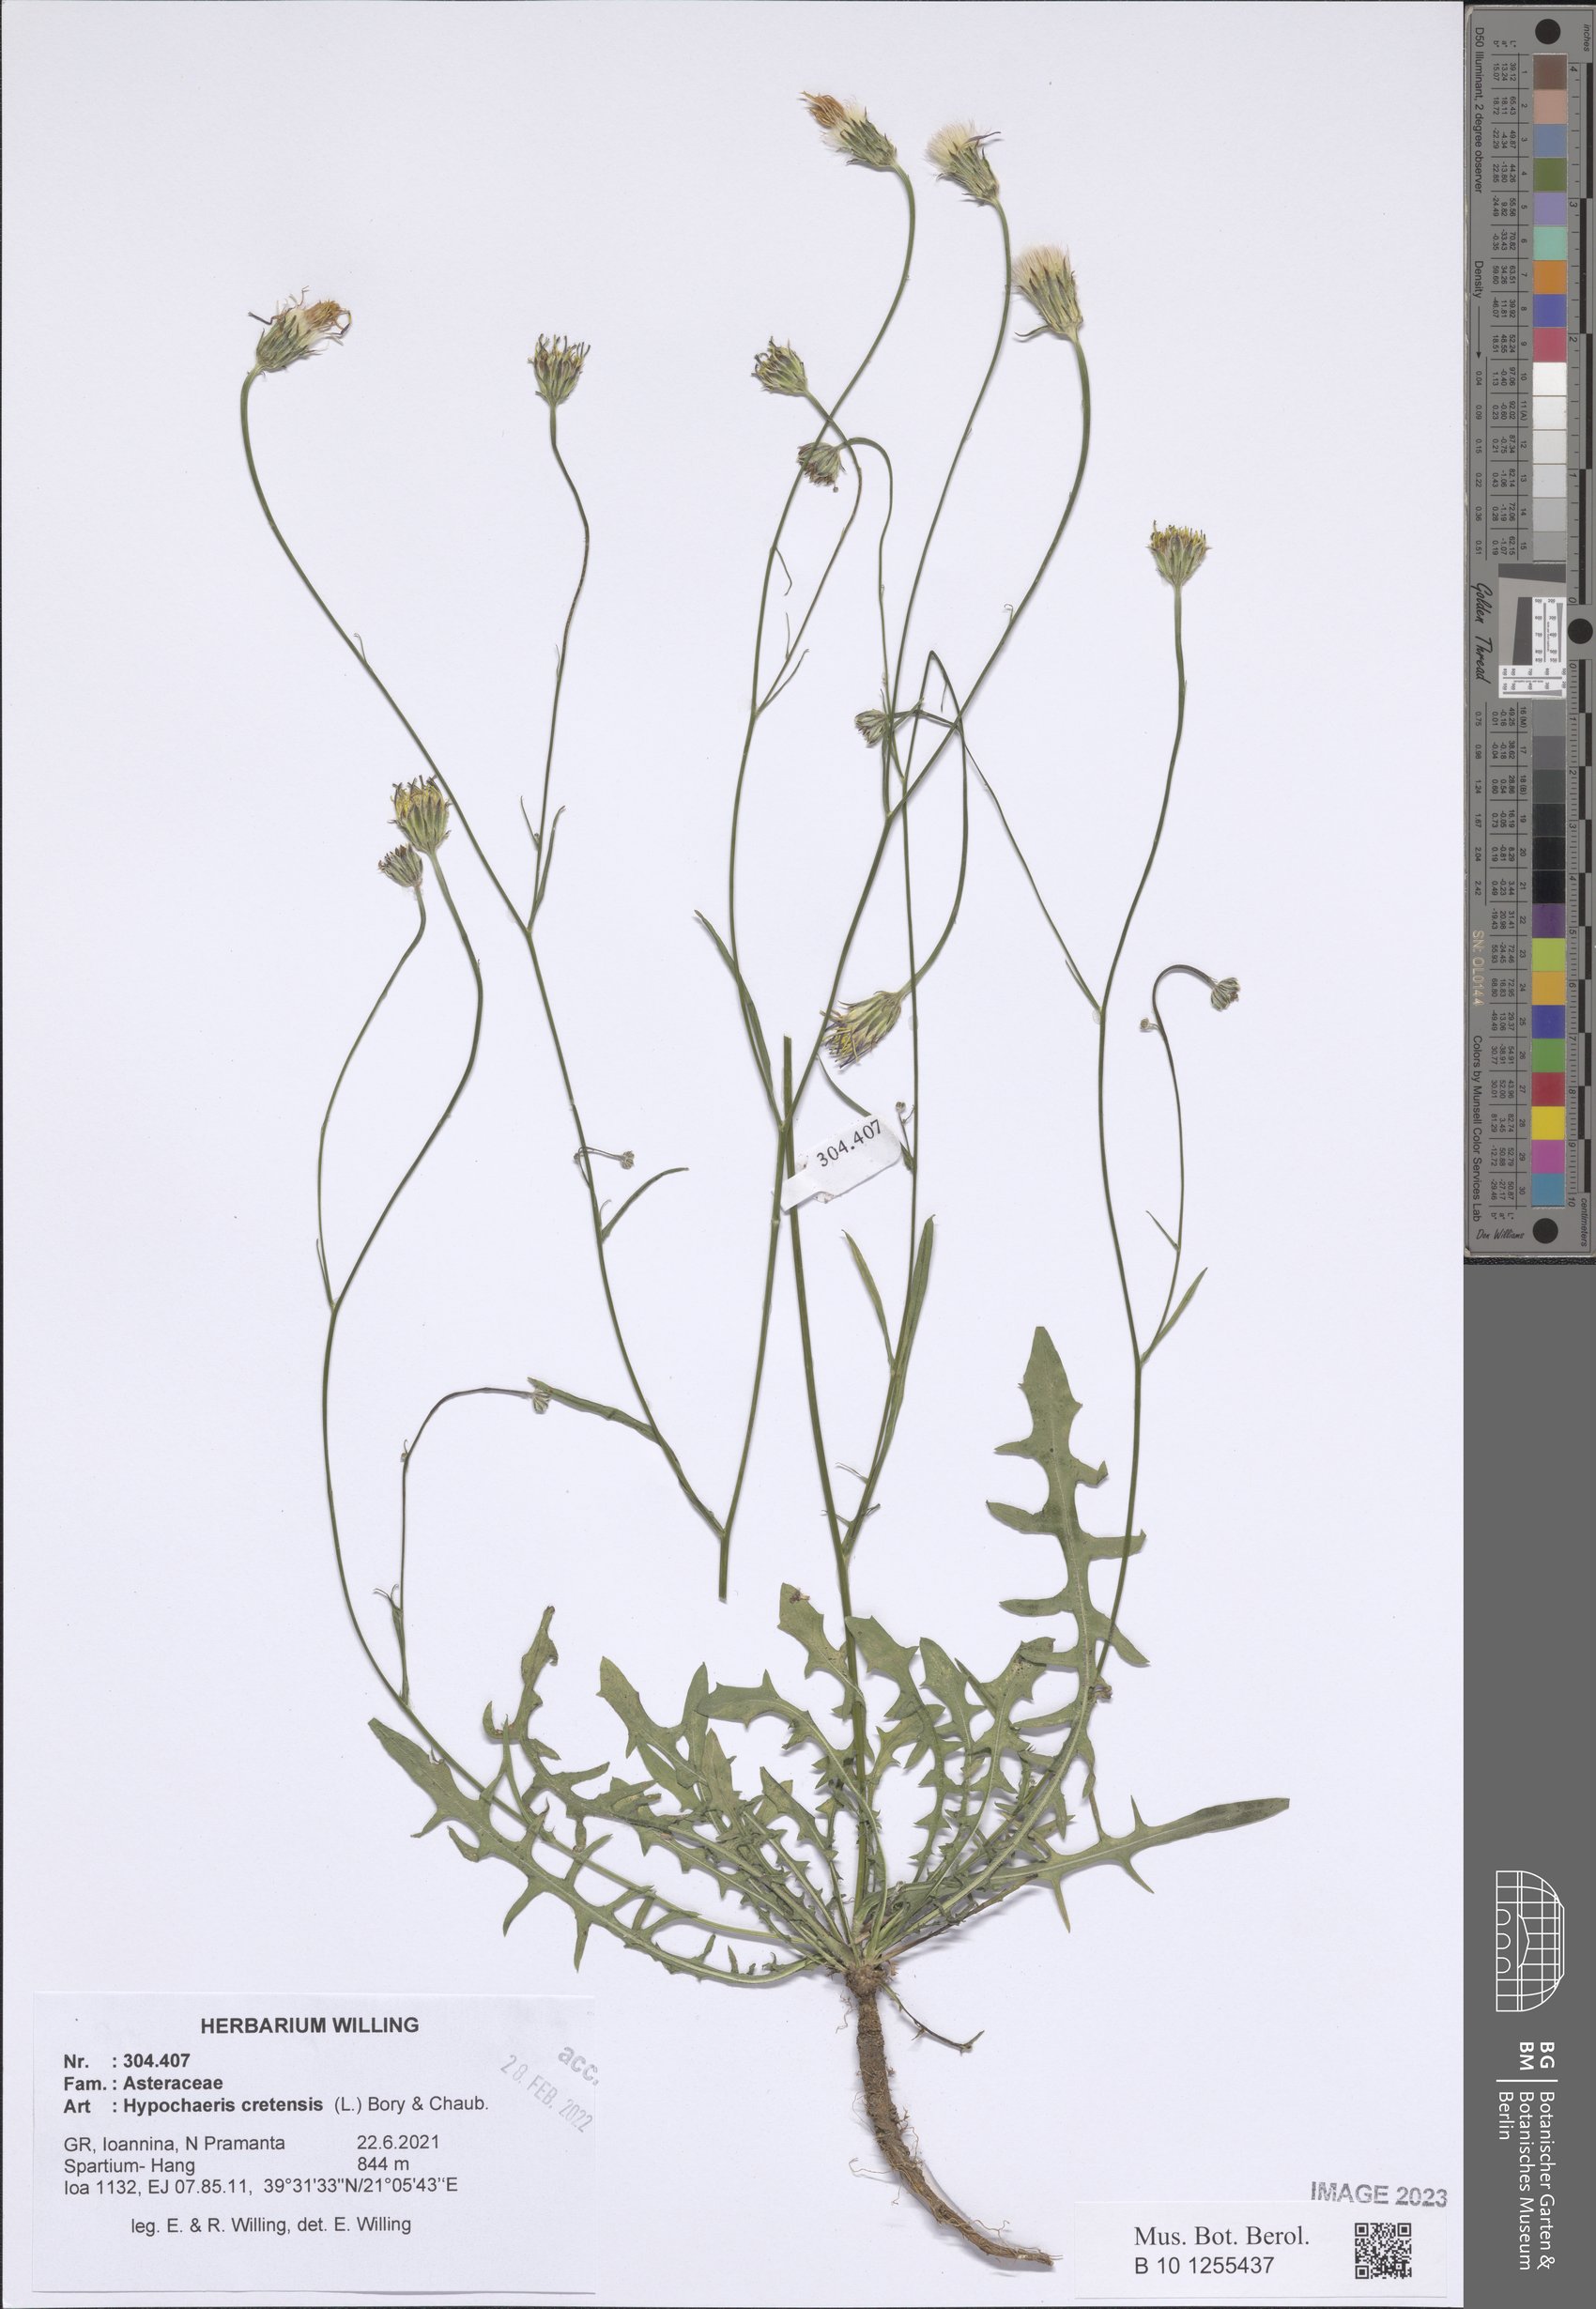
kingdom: Plantae
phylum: Tracheophyta
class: Magnoliopsida
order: Asterales
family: Asteraceae
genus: Hypochaeris
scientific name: Hypochaeris cretensis
